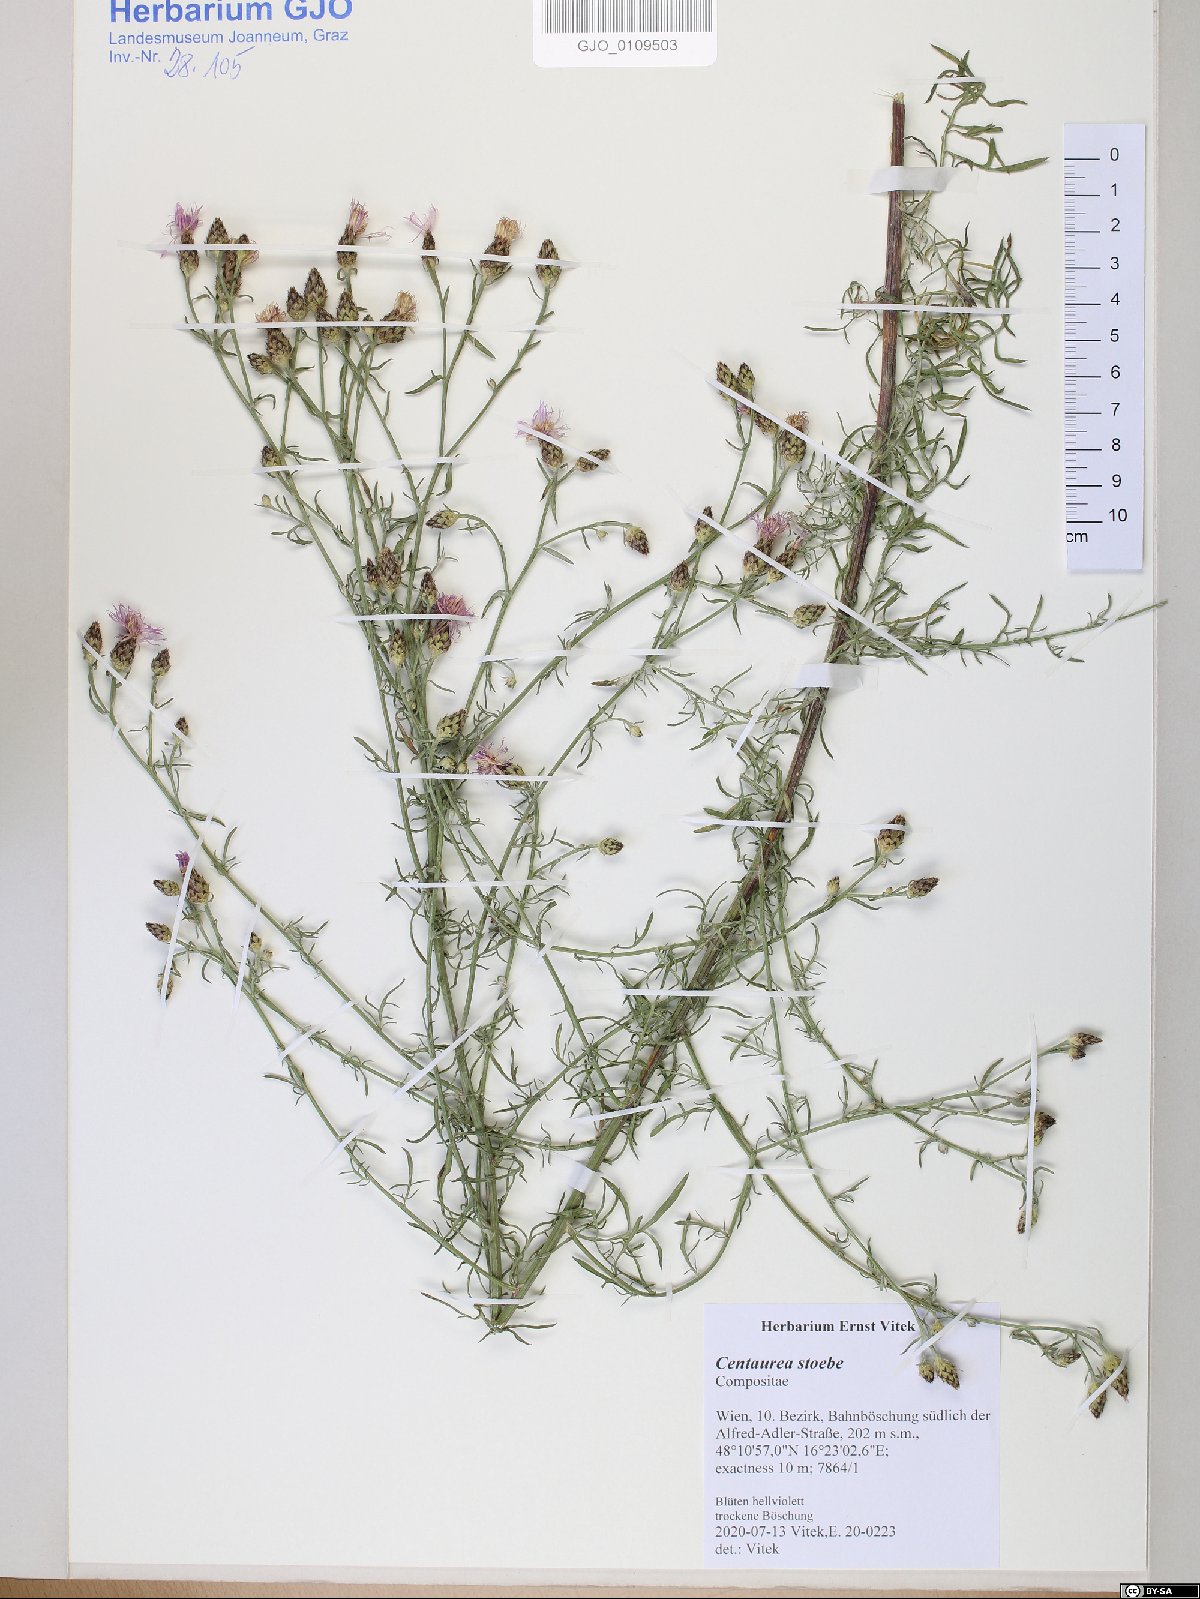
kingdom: Plantae
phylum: Tracheophyta
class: Magnoliopsida
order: Asterales
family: Asteraceae
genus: Centaurea
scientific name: Centaurea stoebe
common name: Spotted knapweed
